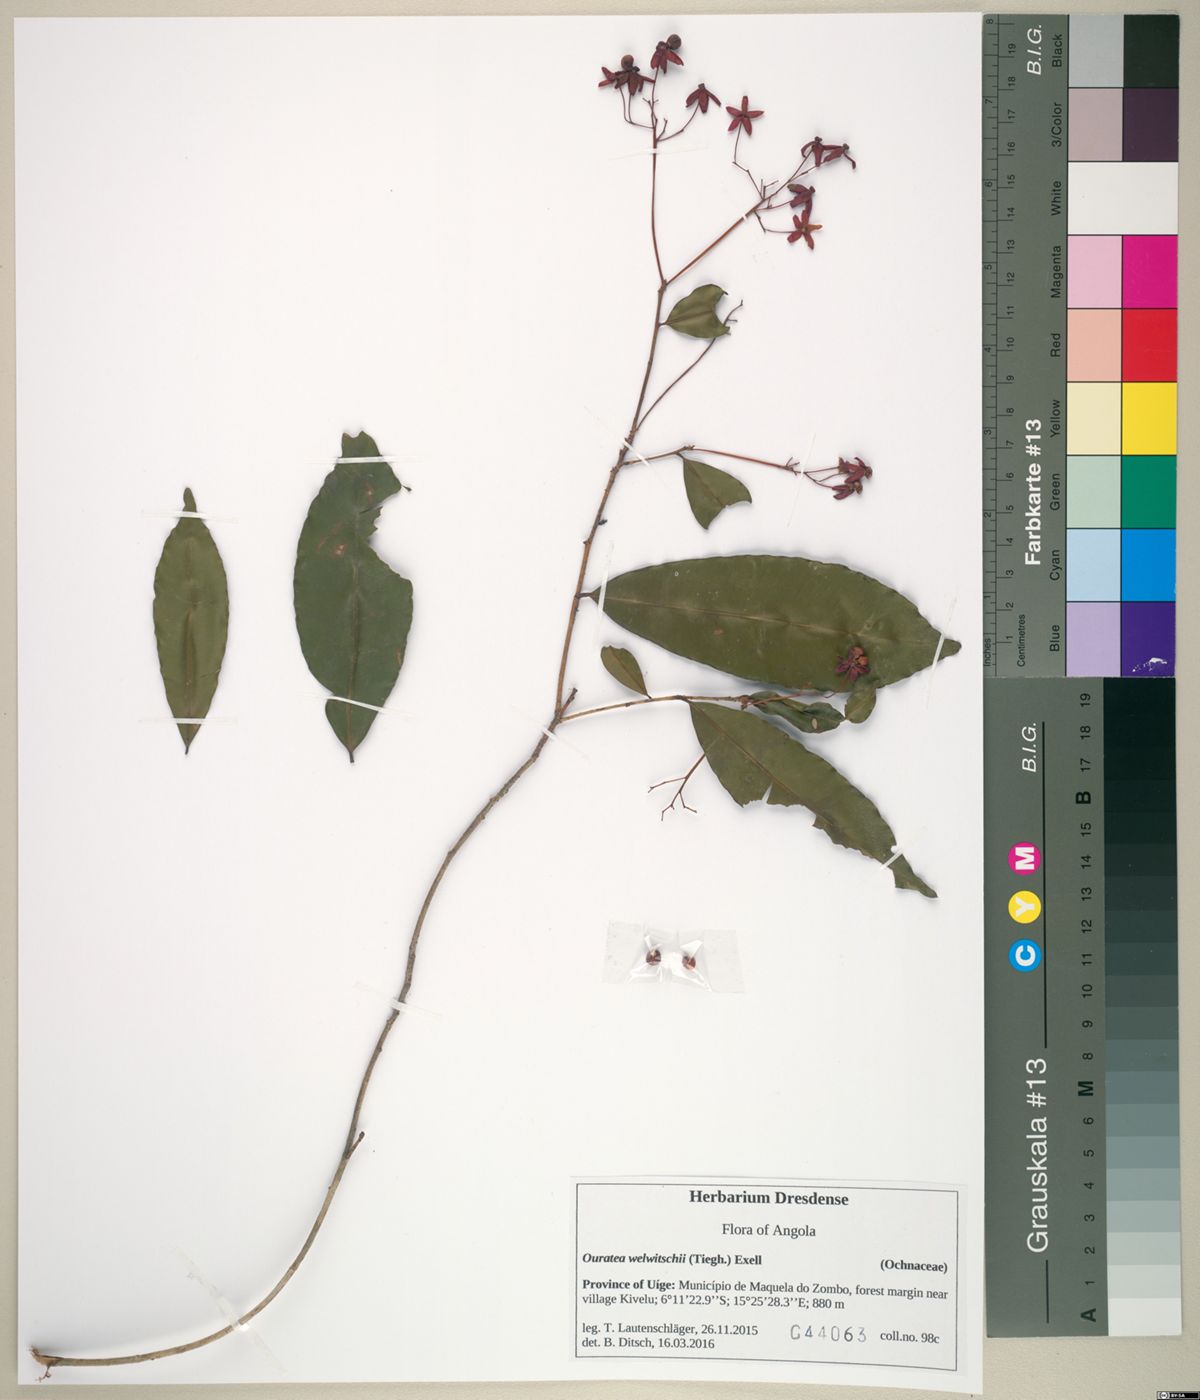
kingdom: Plantae
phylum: Tracheophyta
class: Magnoliopsida
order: Malpighiales
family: Ochnaceae
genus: Rhabdophyllum
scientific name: Rhabdophyllum welwitschii
